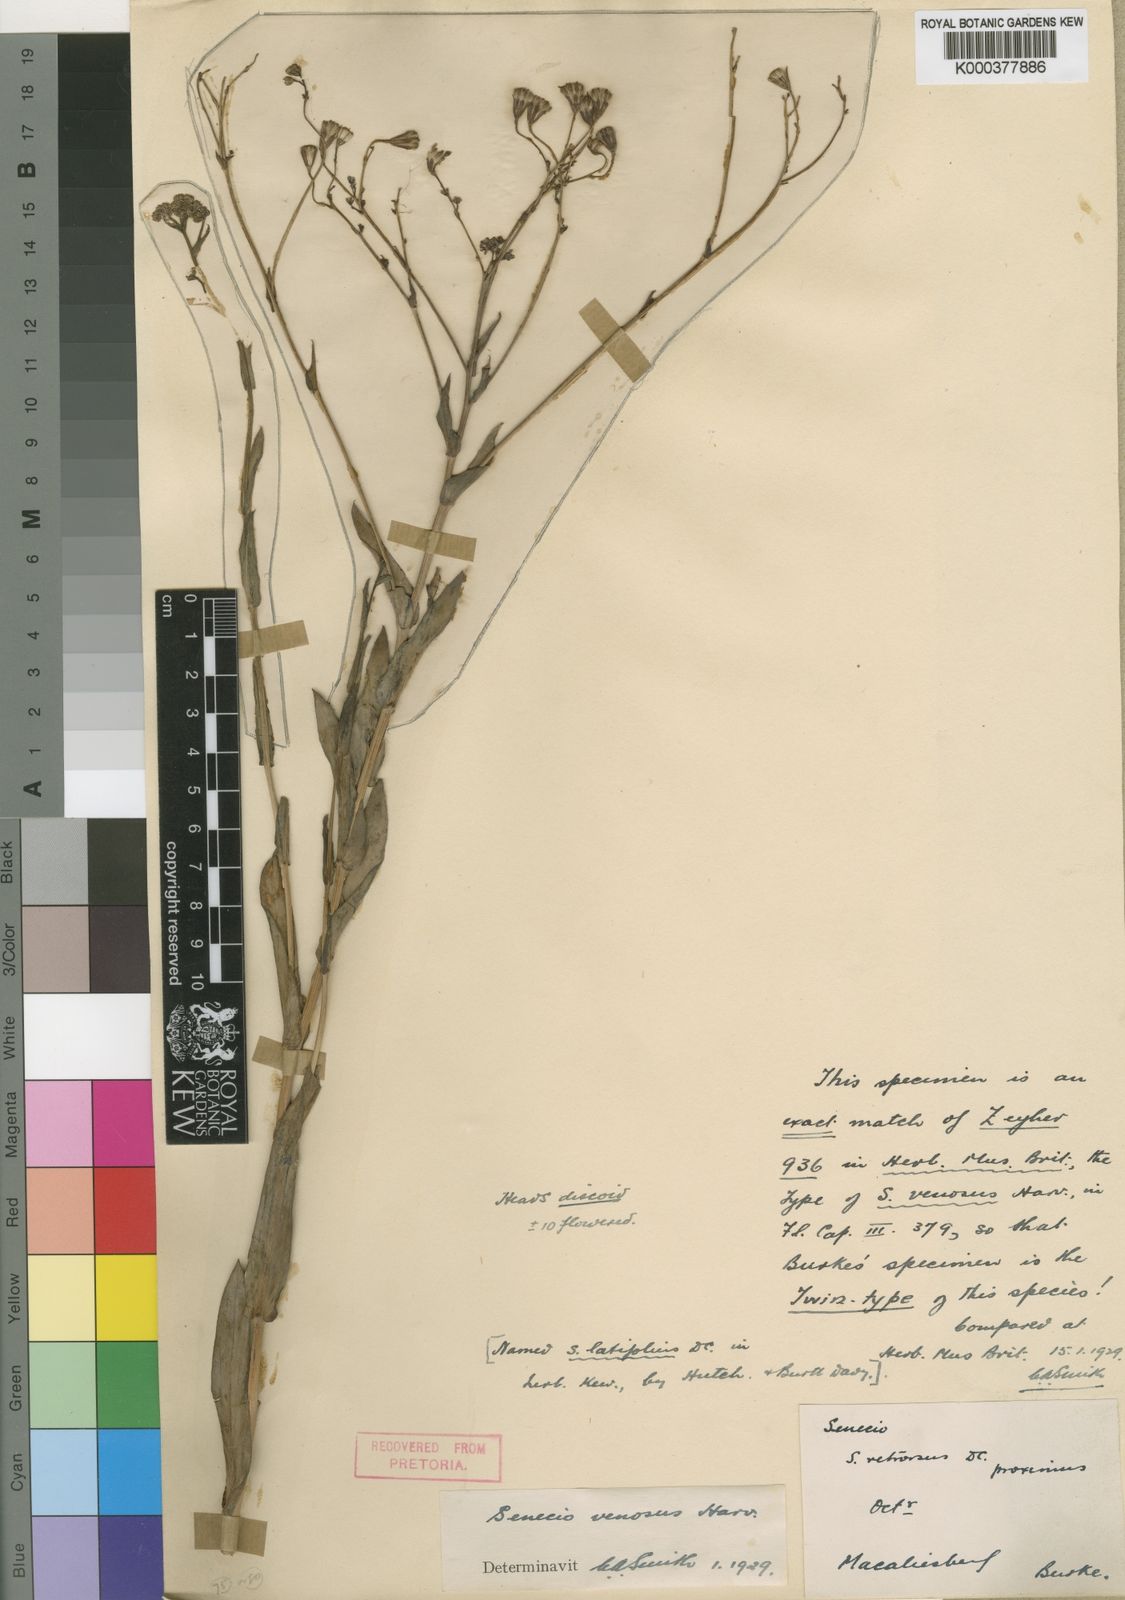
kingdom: Plantae
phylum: Tracheophyta
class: Magnoliopsida
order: Asterales
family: Asteraceae
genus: Senecio
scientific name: Senecio venosus
